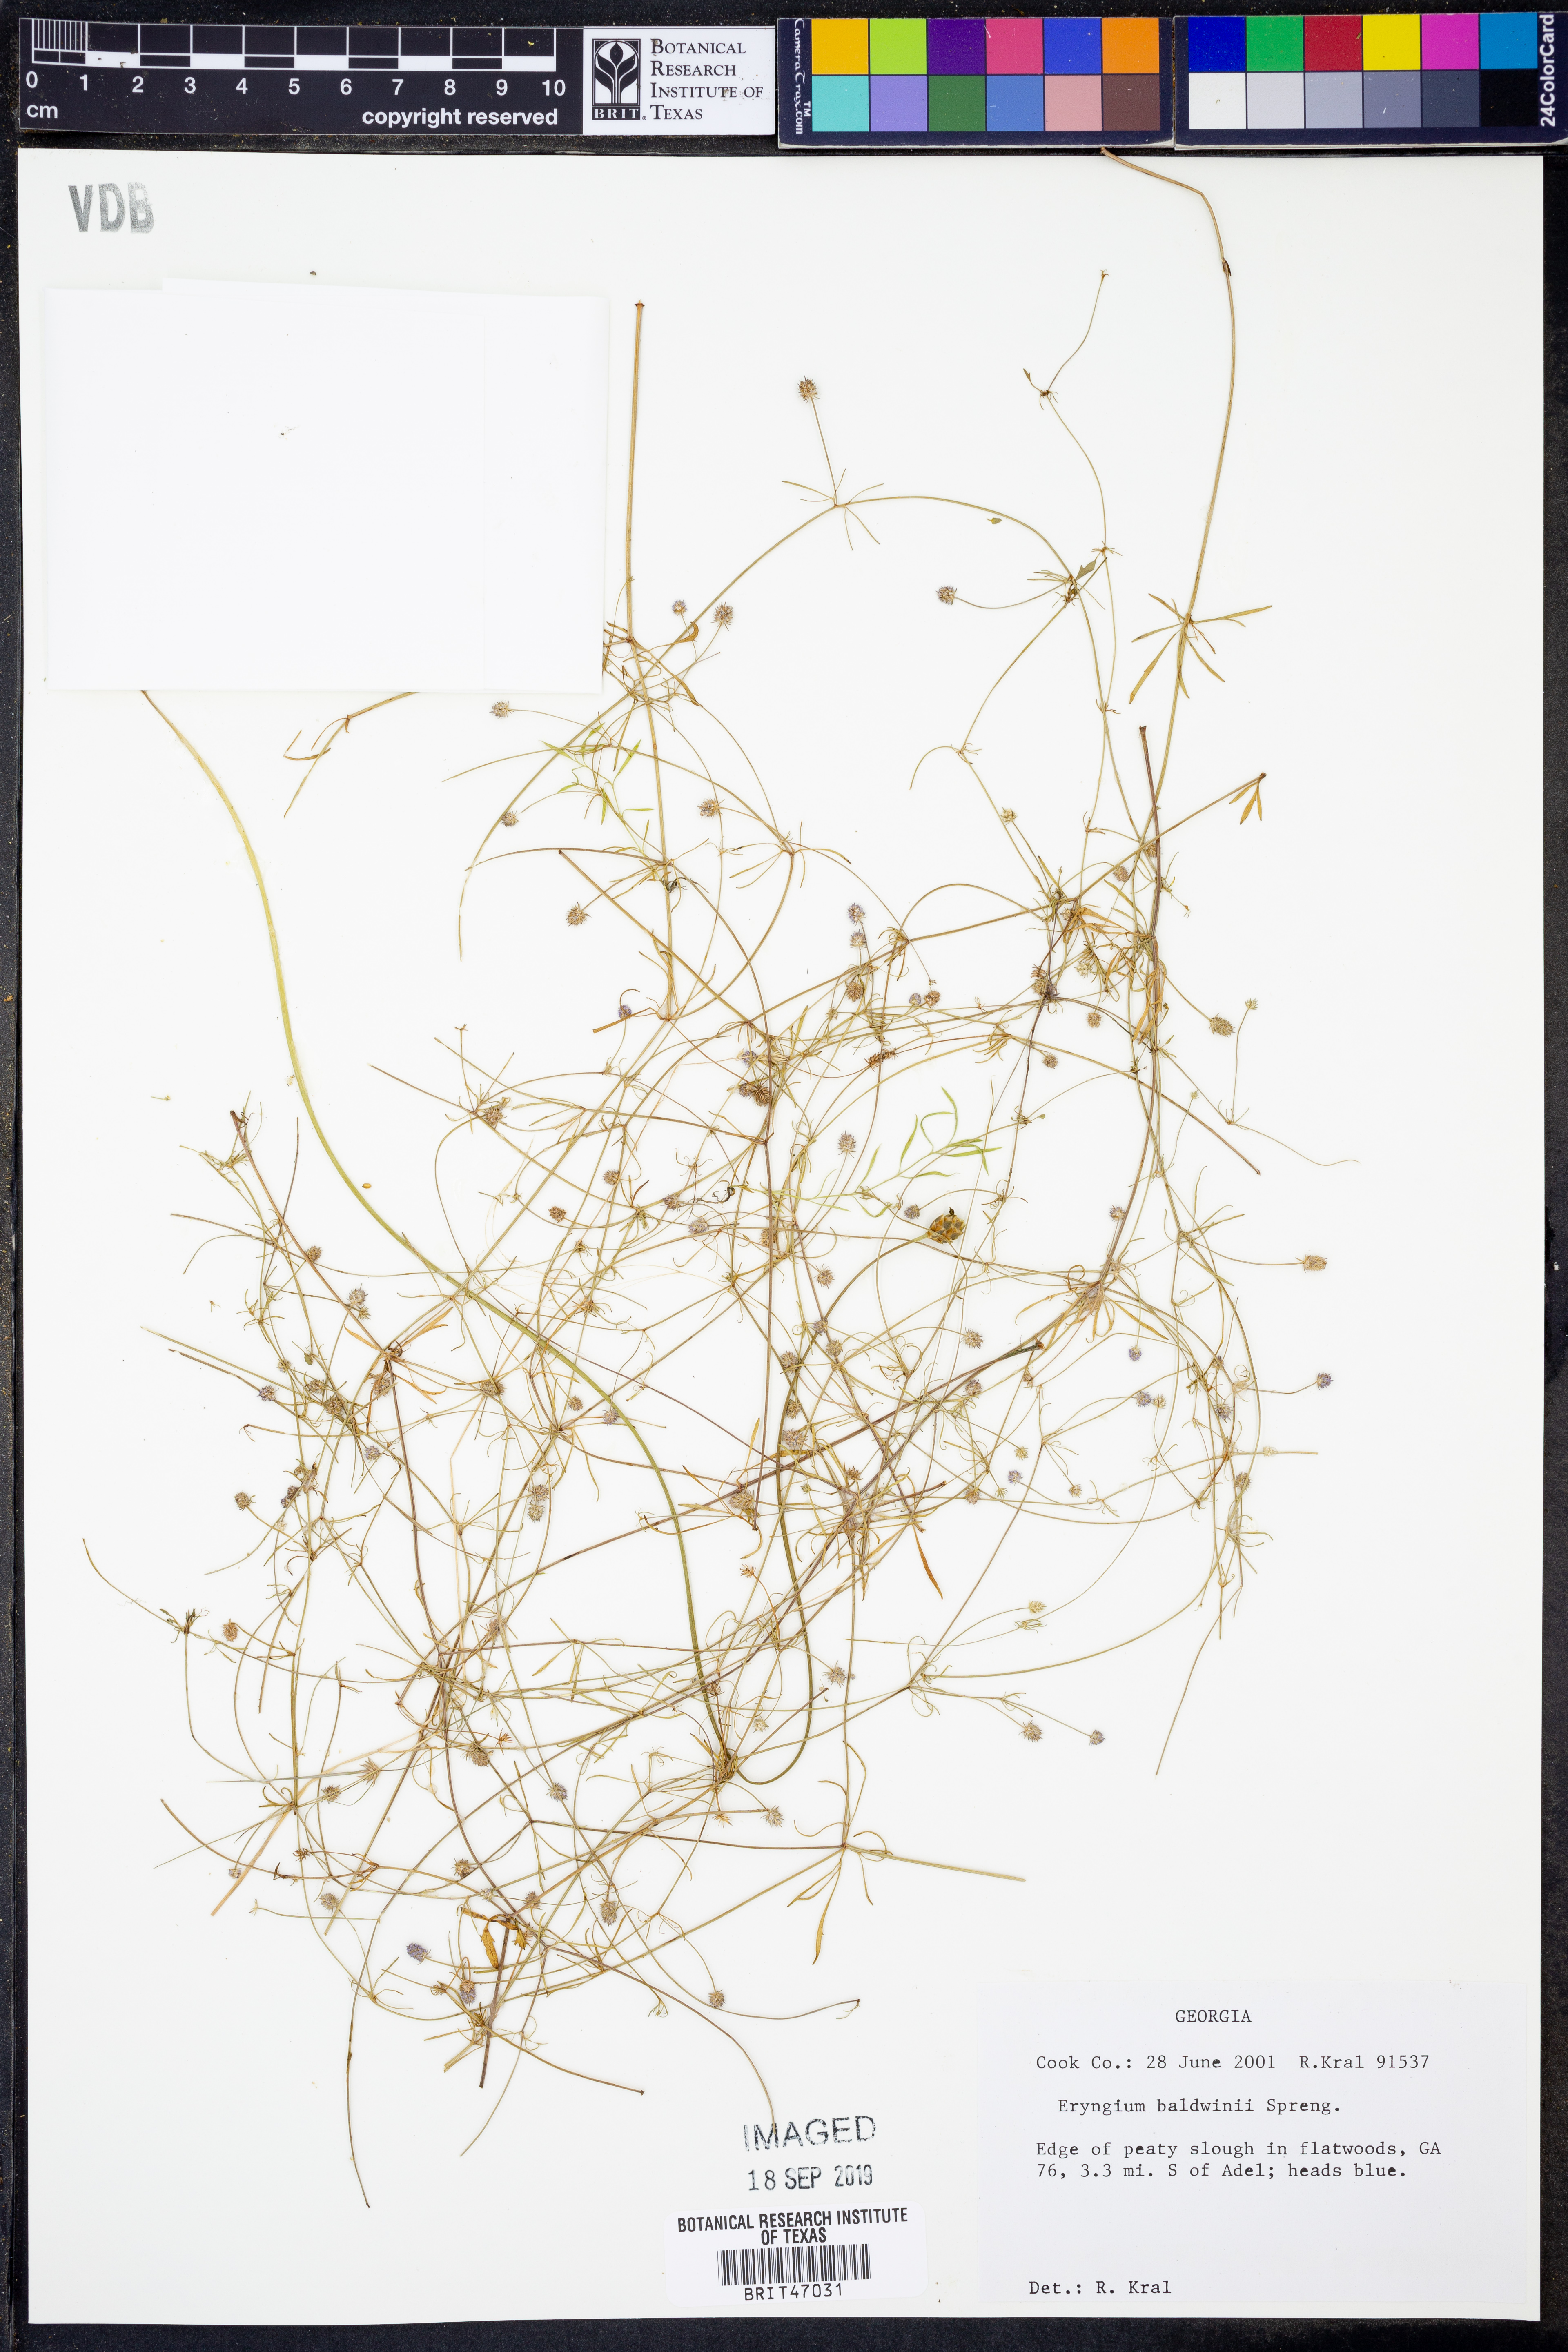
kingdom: Plantae
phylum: Tracheophyta
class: Magnoliopsida
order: Apiales
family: Apiaceae
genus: Eryngium
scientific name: Eryngium baldwinii
